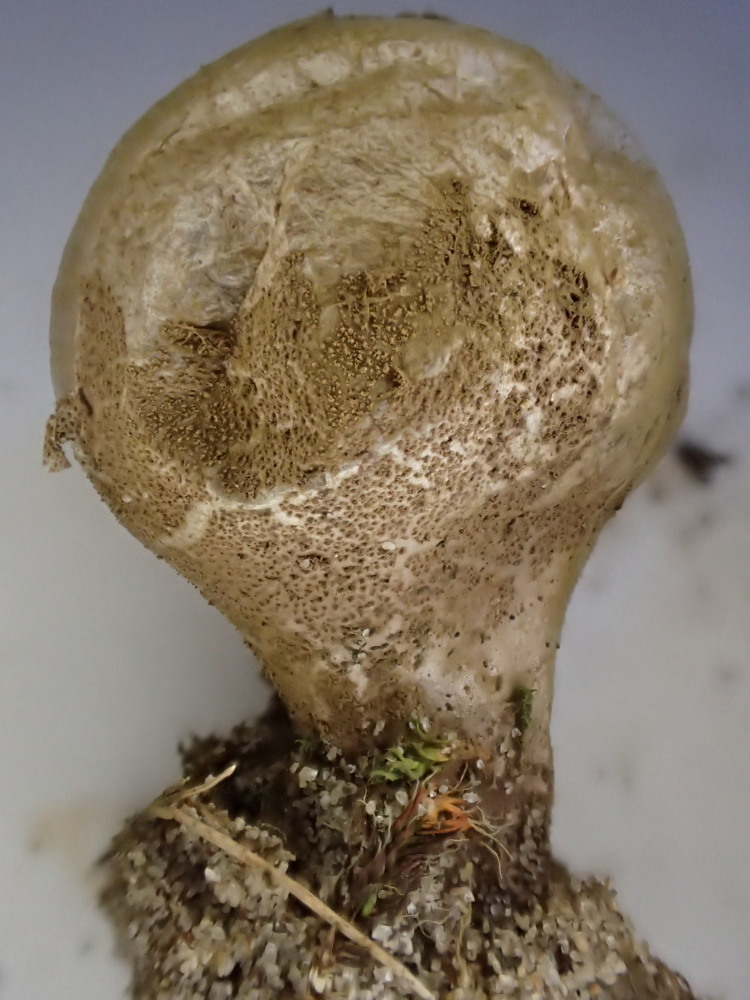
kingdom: Fungi
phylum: Basidiomycota
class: Agaricomycetes
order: Agaricales
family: Lycoperdaceae
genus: Lycoperdon
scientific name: Lycoperdon lividum
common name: mark-støvbold
